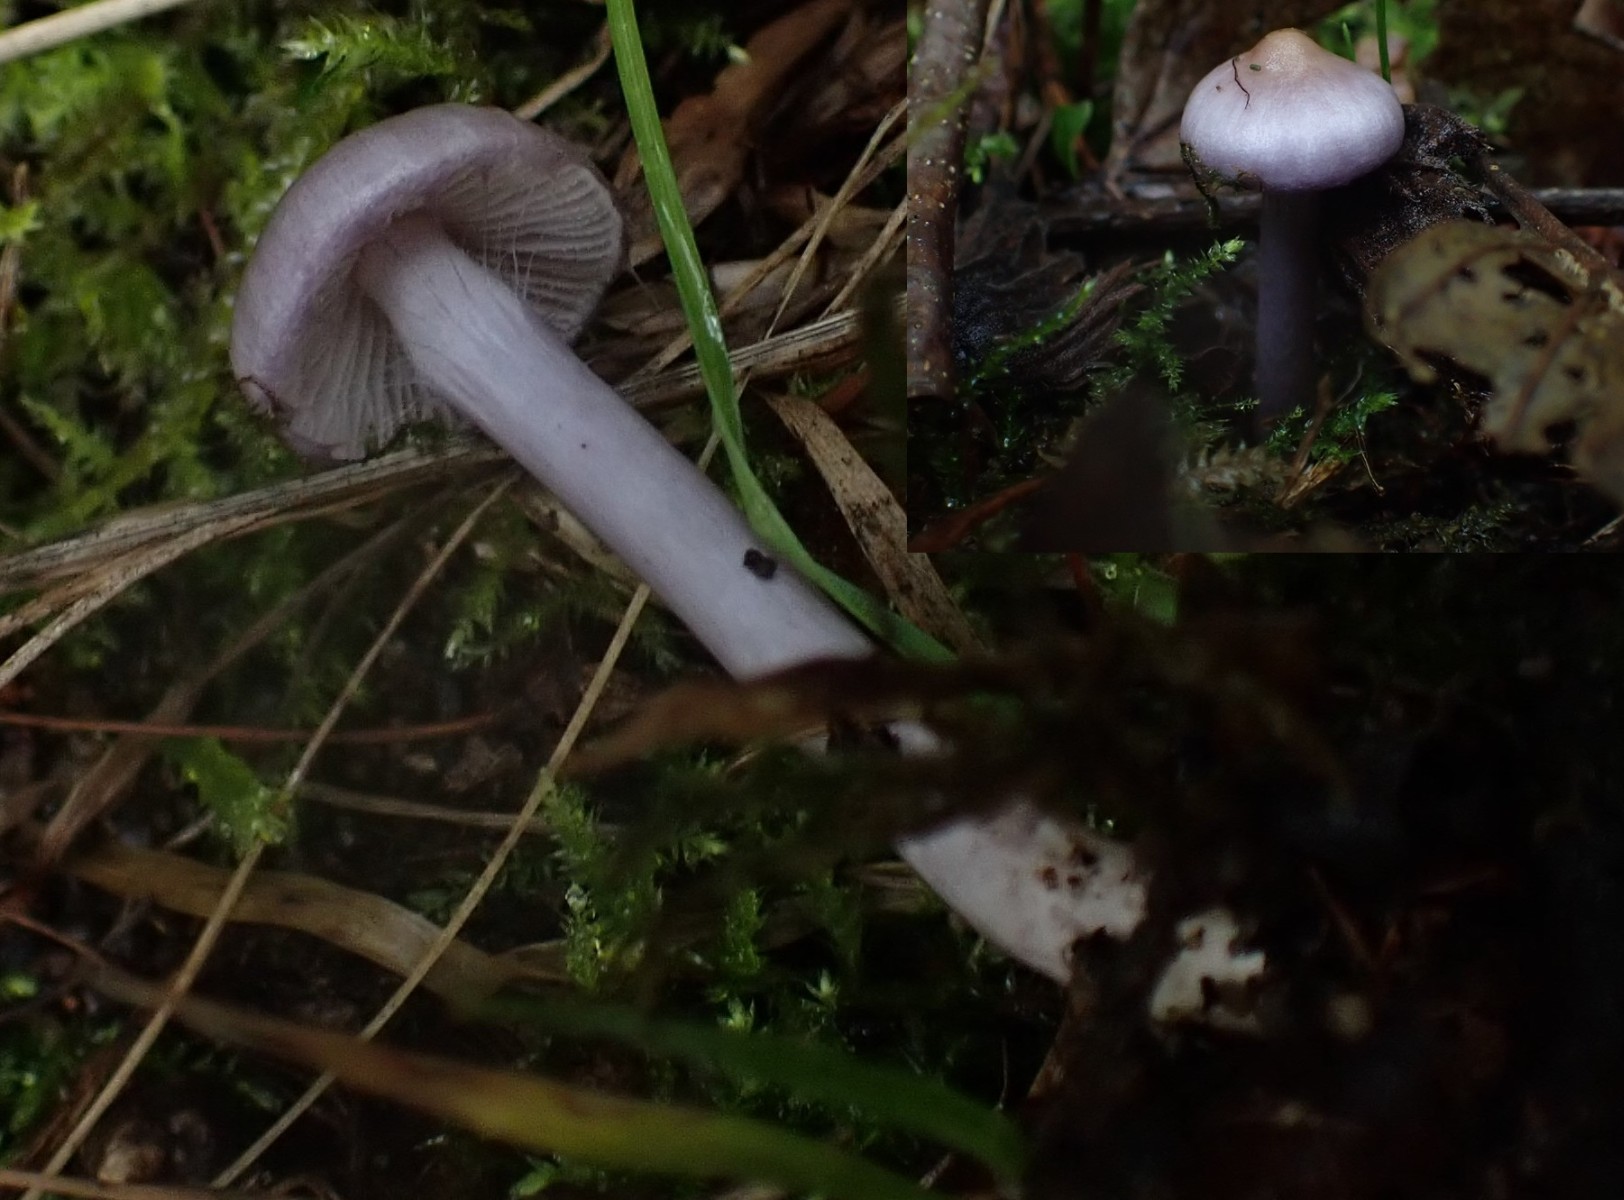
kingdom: Fungi
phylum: Basidiomycota
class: Agaricomycetes
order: Agaricales
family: Inocybaceae
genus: Inocybe
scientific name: Inocybe geophylla
